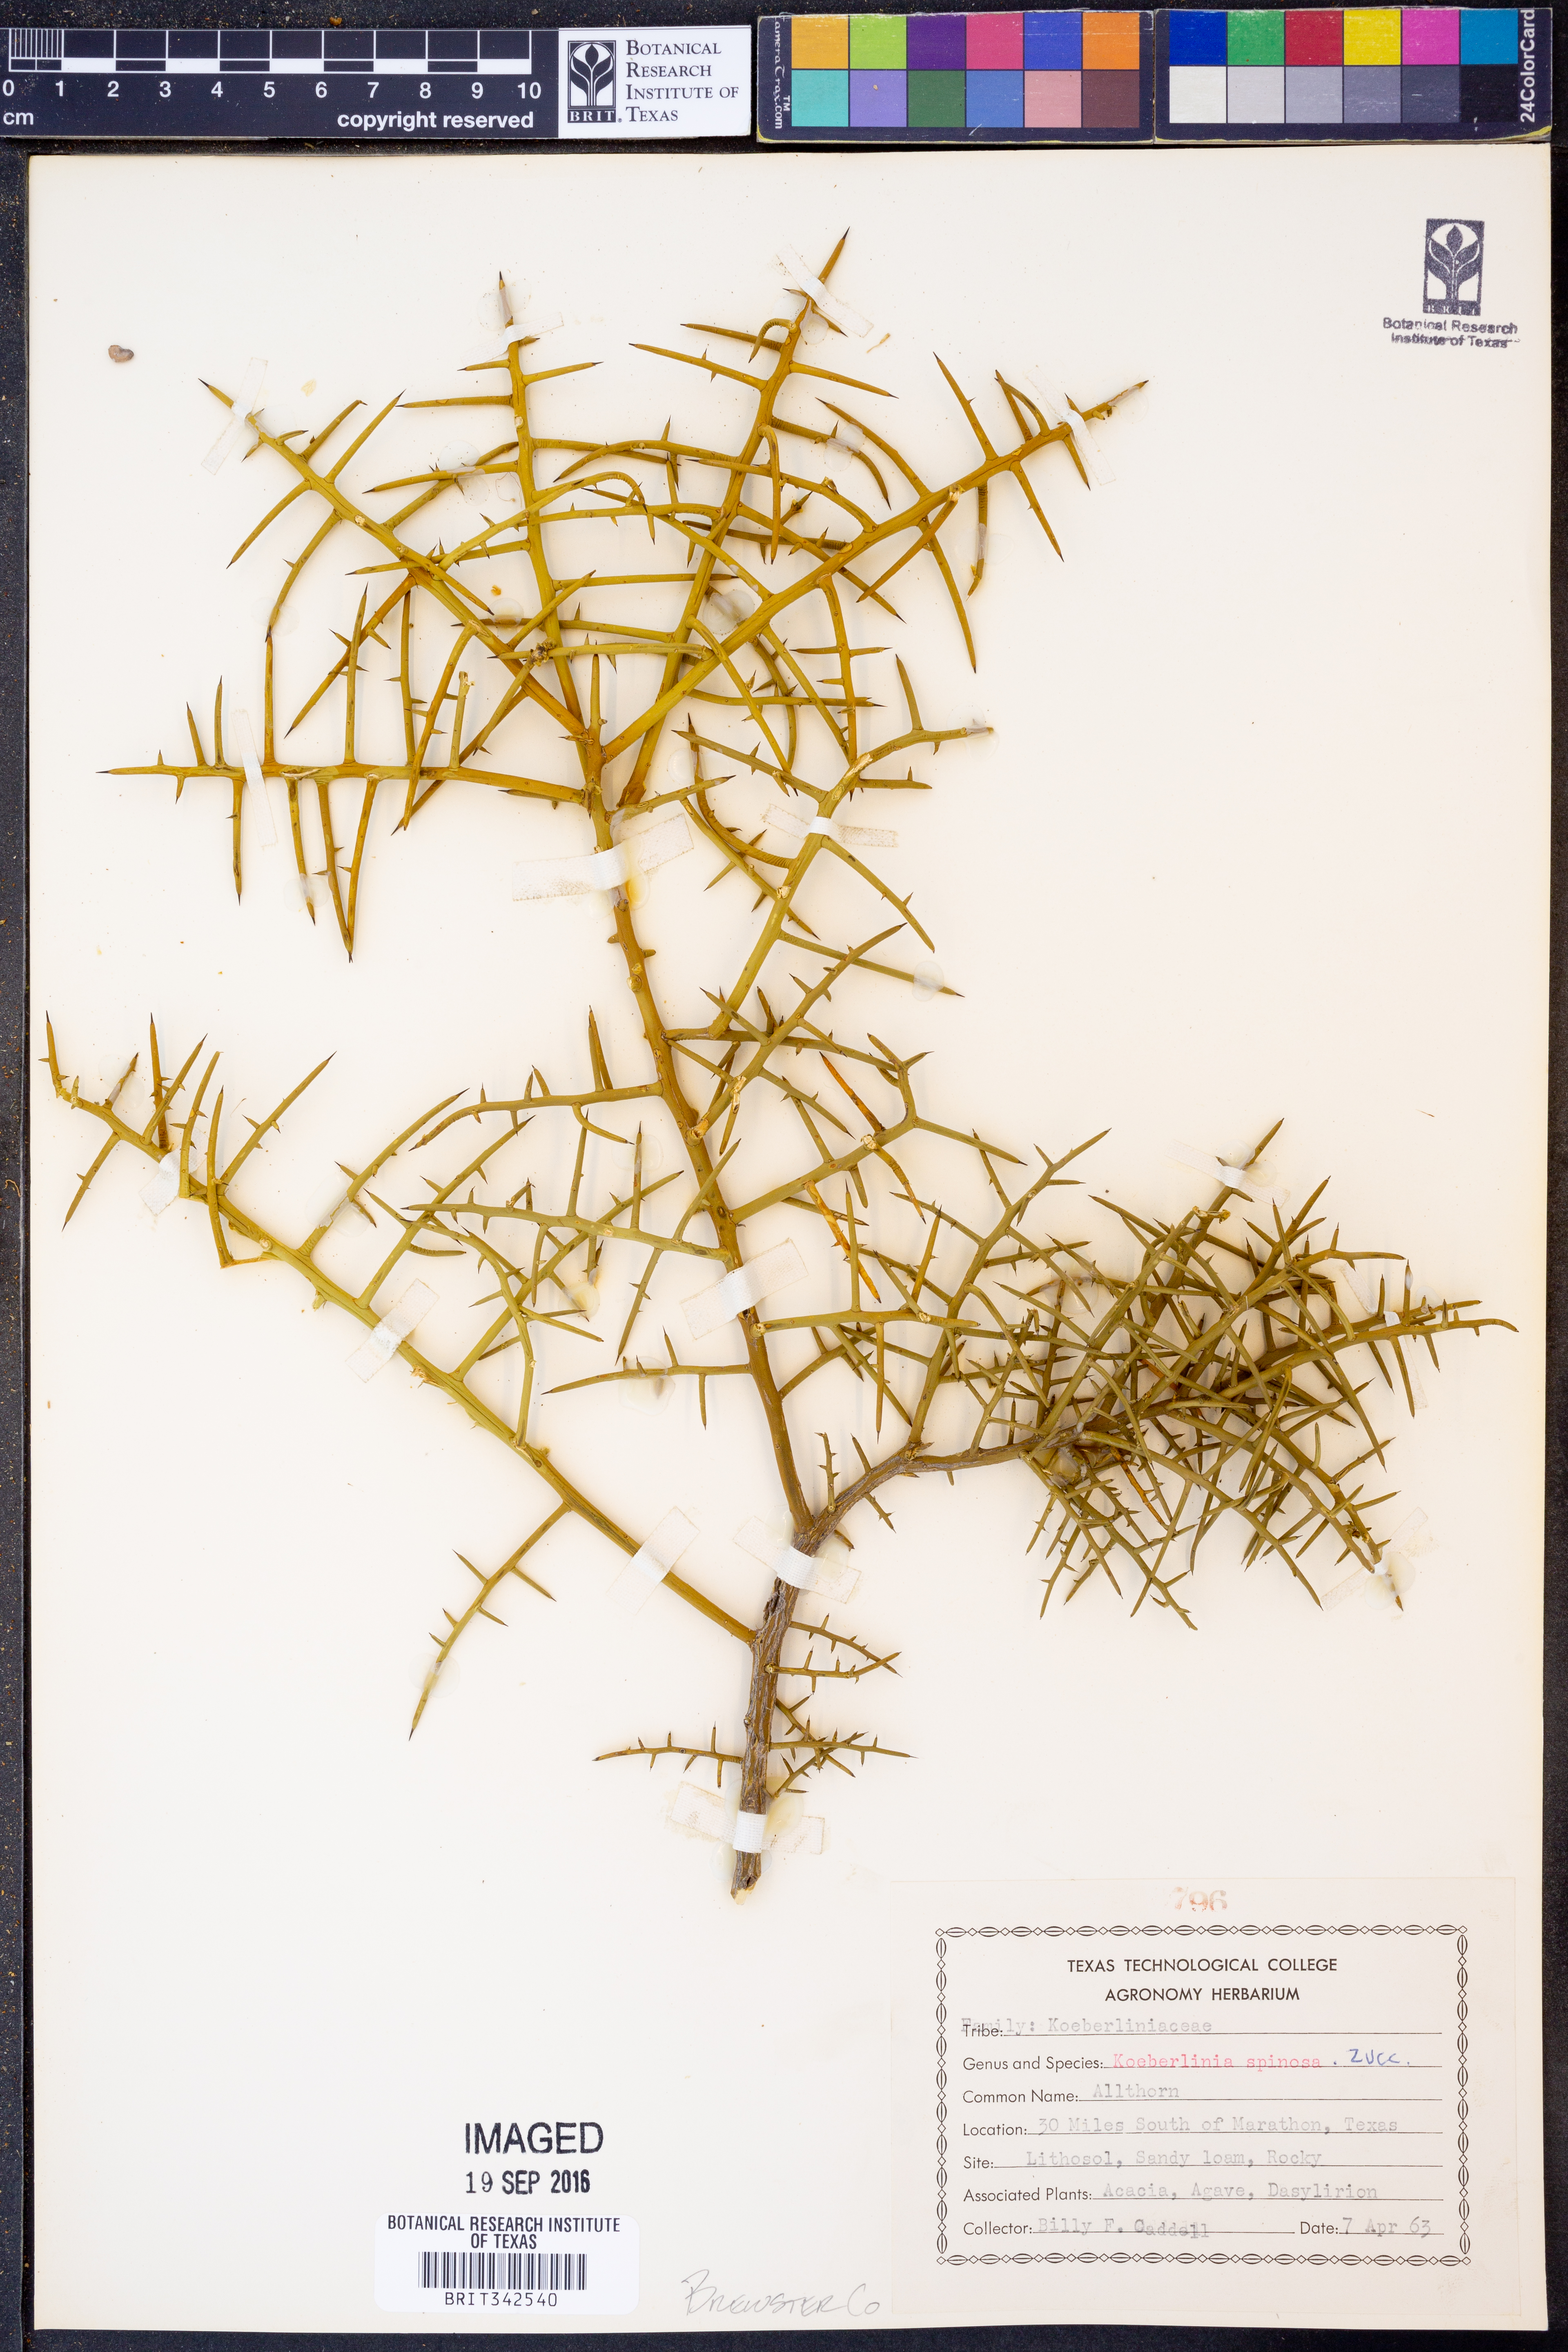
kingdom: Plantae
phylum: Tracheophyta
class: Magnoliopsida
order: Brassicales
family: Koeberliniaceae
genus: Koeberlinia
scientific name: Koeberlinia spinosa
